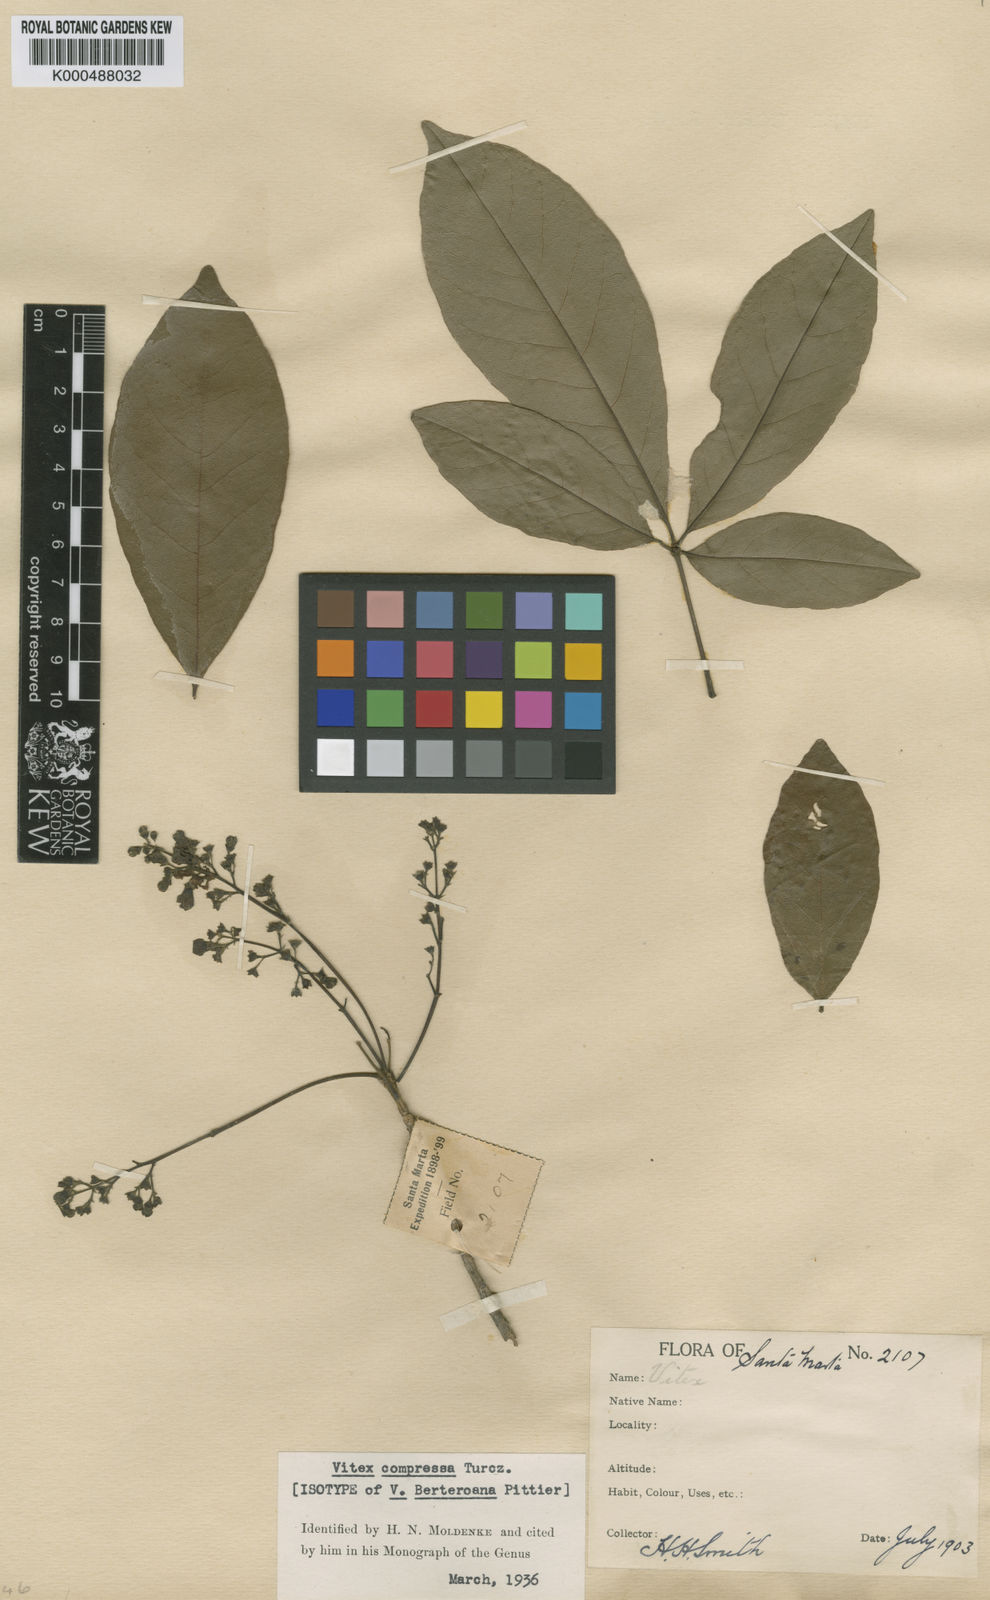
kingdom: Plantae
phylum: Tracheophyta
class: Magnoliopsida
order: Lamiales
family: Lamiaceae
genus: Vitex
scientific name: Vitex compressa
